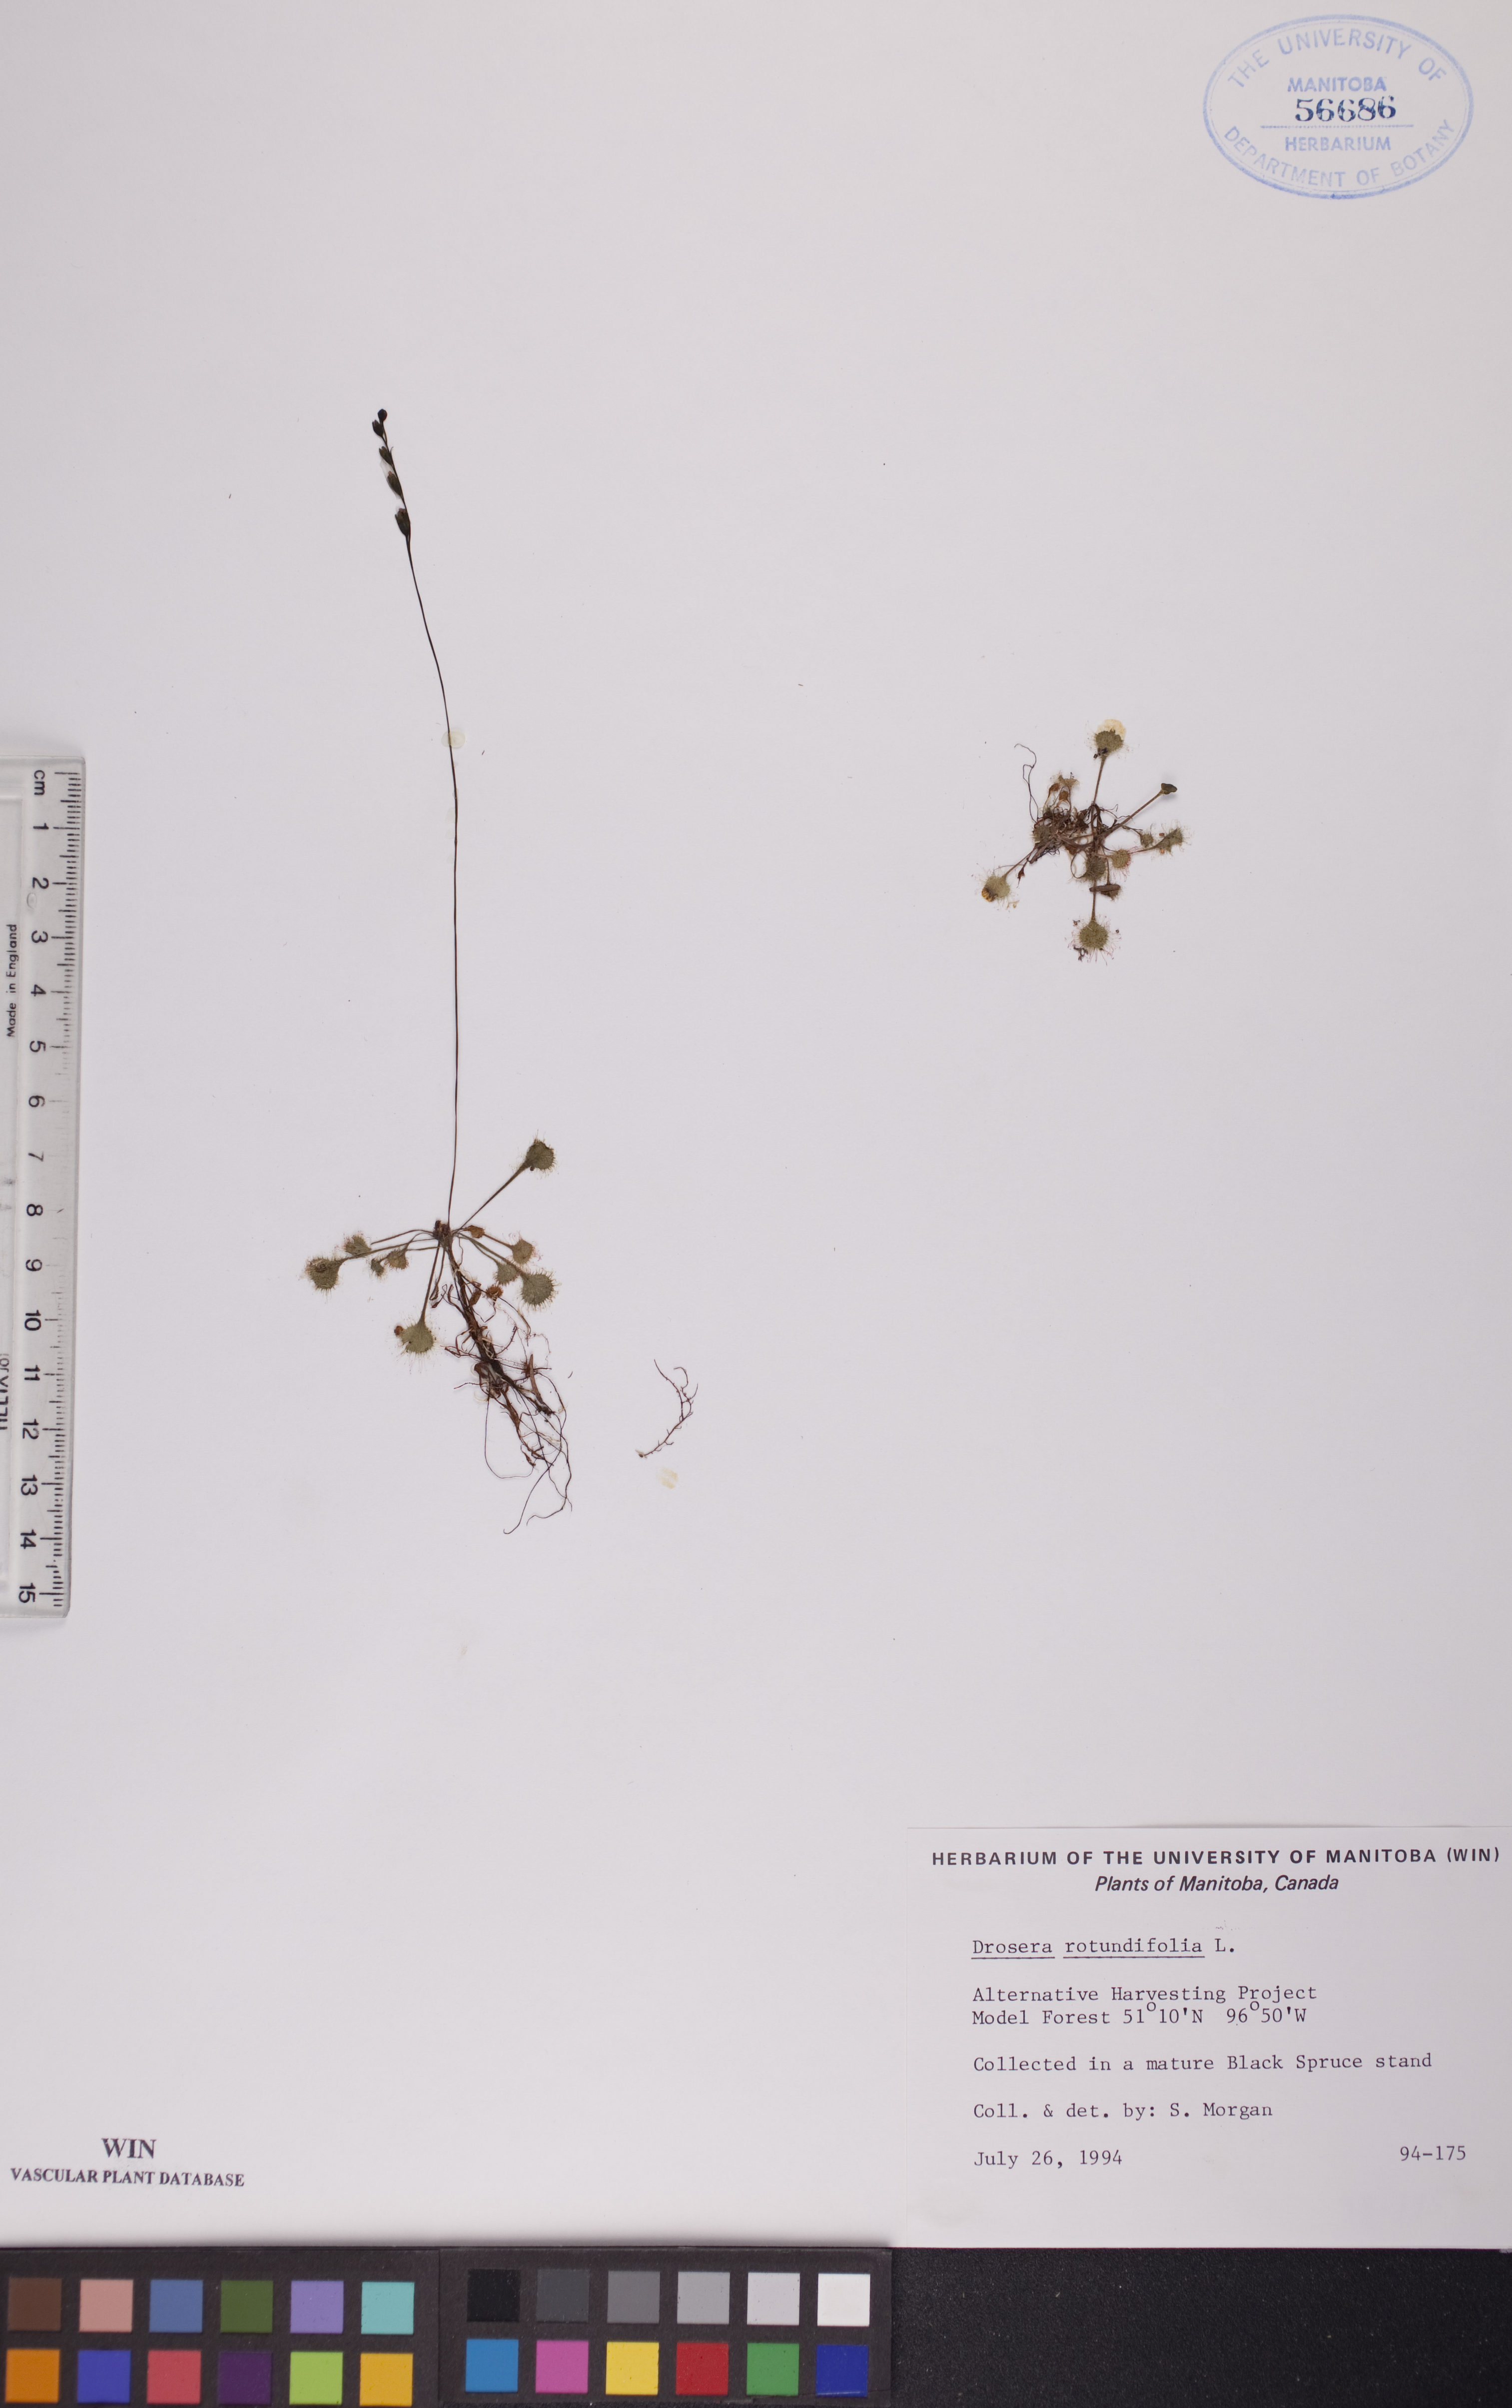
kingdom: Plantae
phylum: Tracheophyta
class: Magnoliopsida
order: Caryophyllales
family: Droseraceae
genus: Drosera
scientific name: Drosera rotundifolia
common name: Round-leaved sundew
